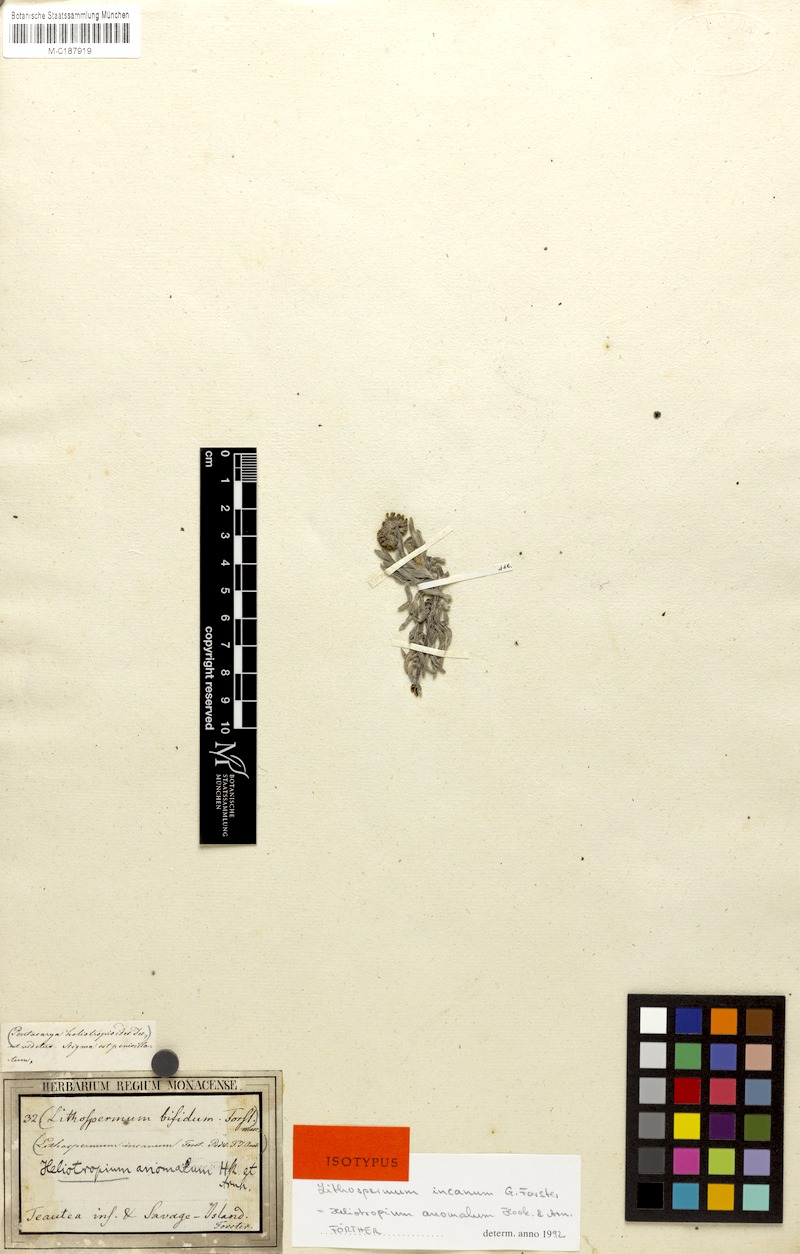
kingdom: Plantae
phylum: Tracheophyta
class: Magnoliopsida
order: Boraginales
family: Heliotropiaceae
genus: Heliotropium
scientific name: Heliotropium anomalum
